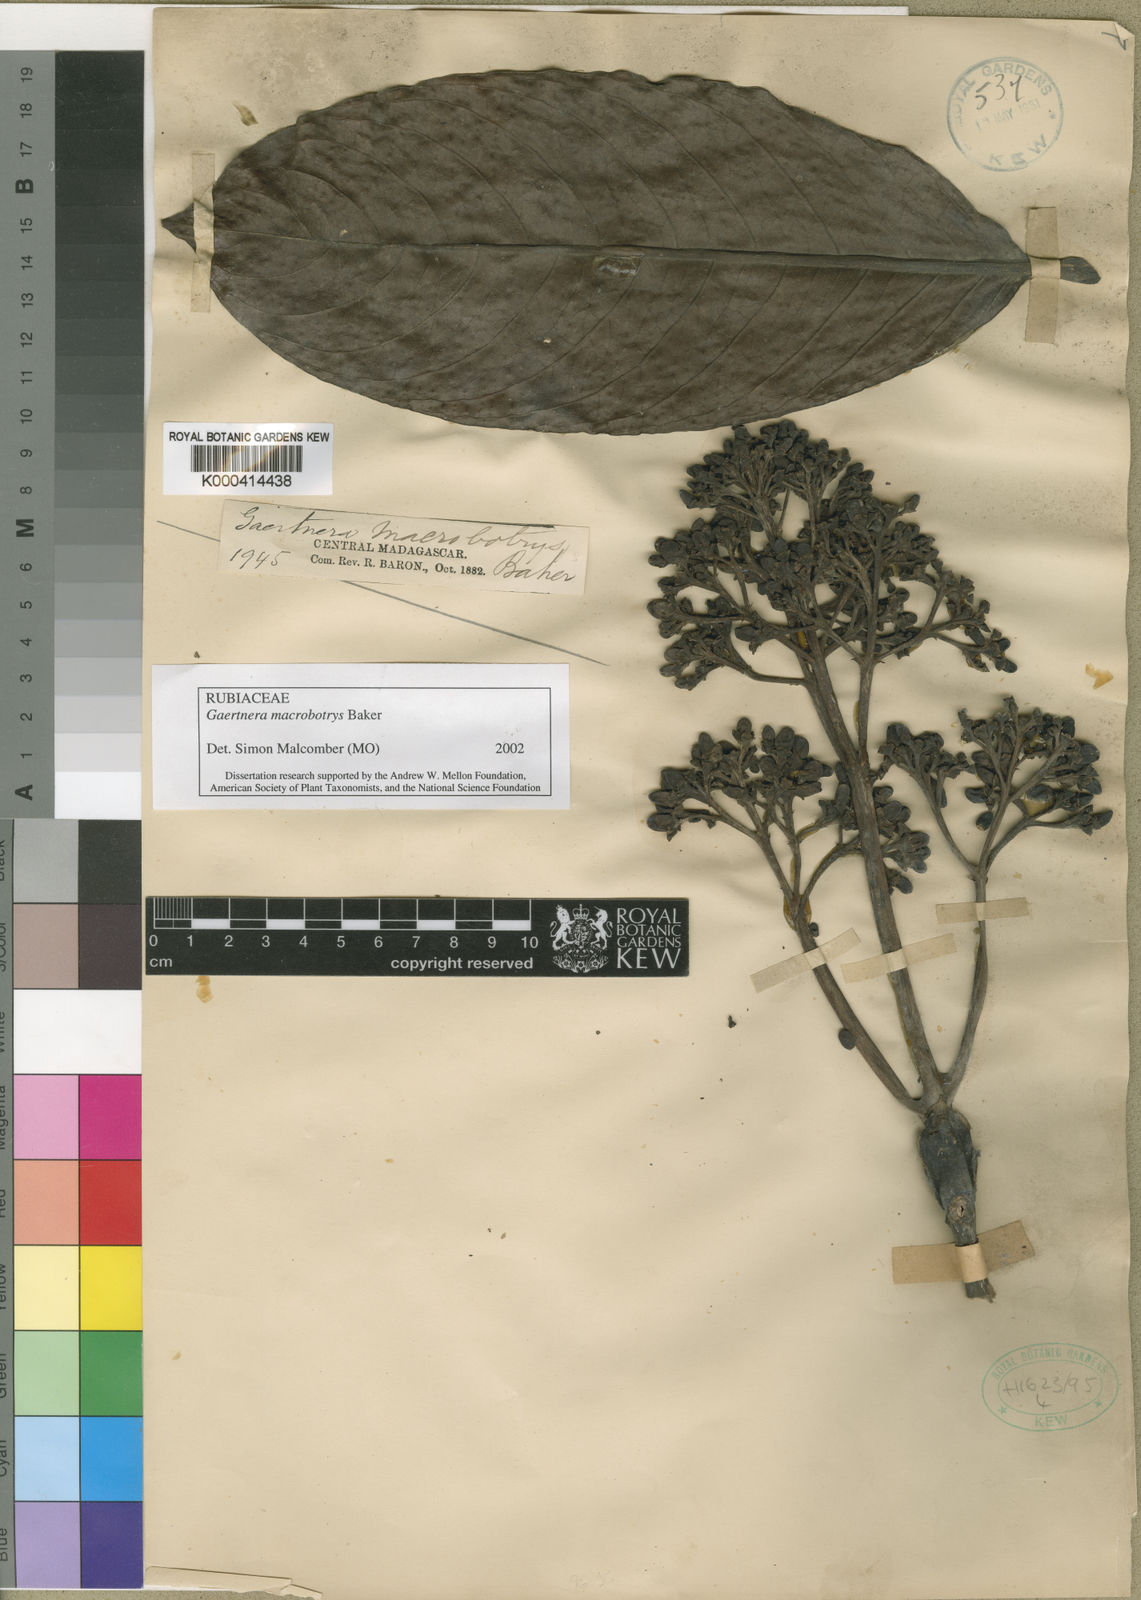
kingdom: Plantae
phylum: Tracheophyta
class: Magnoliopsida
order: Gentianales
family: Rubiaceae
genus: Gaertnera
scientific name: Gaertnera macrobotrys
